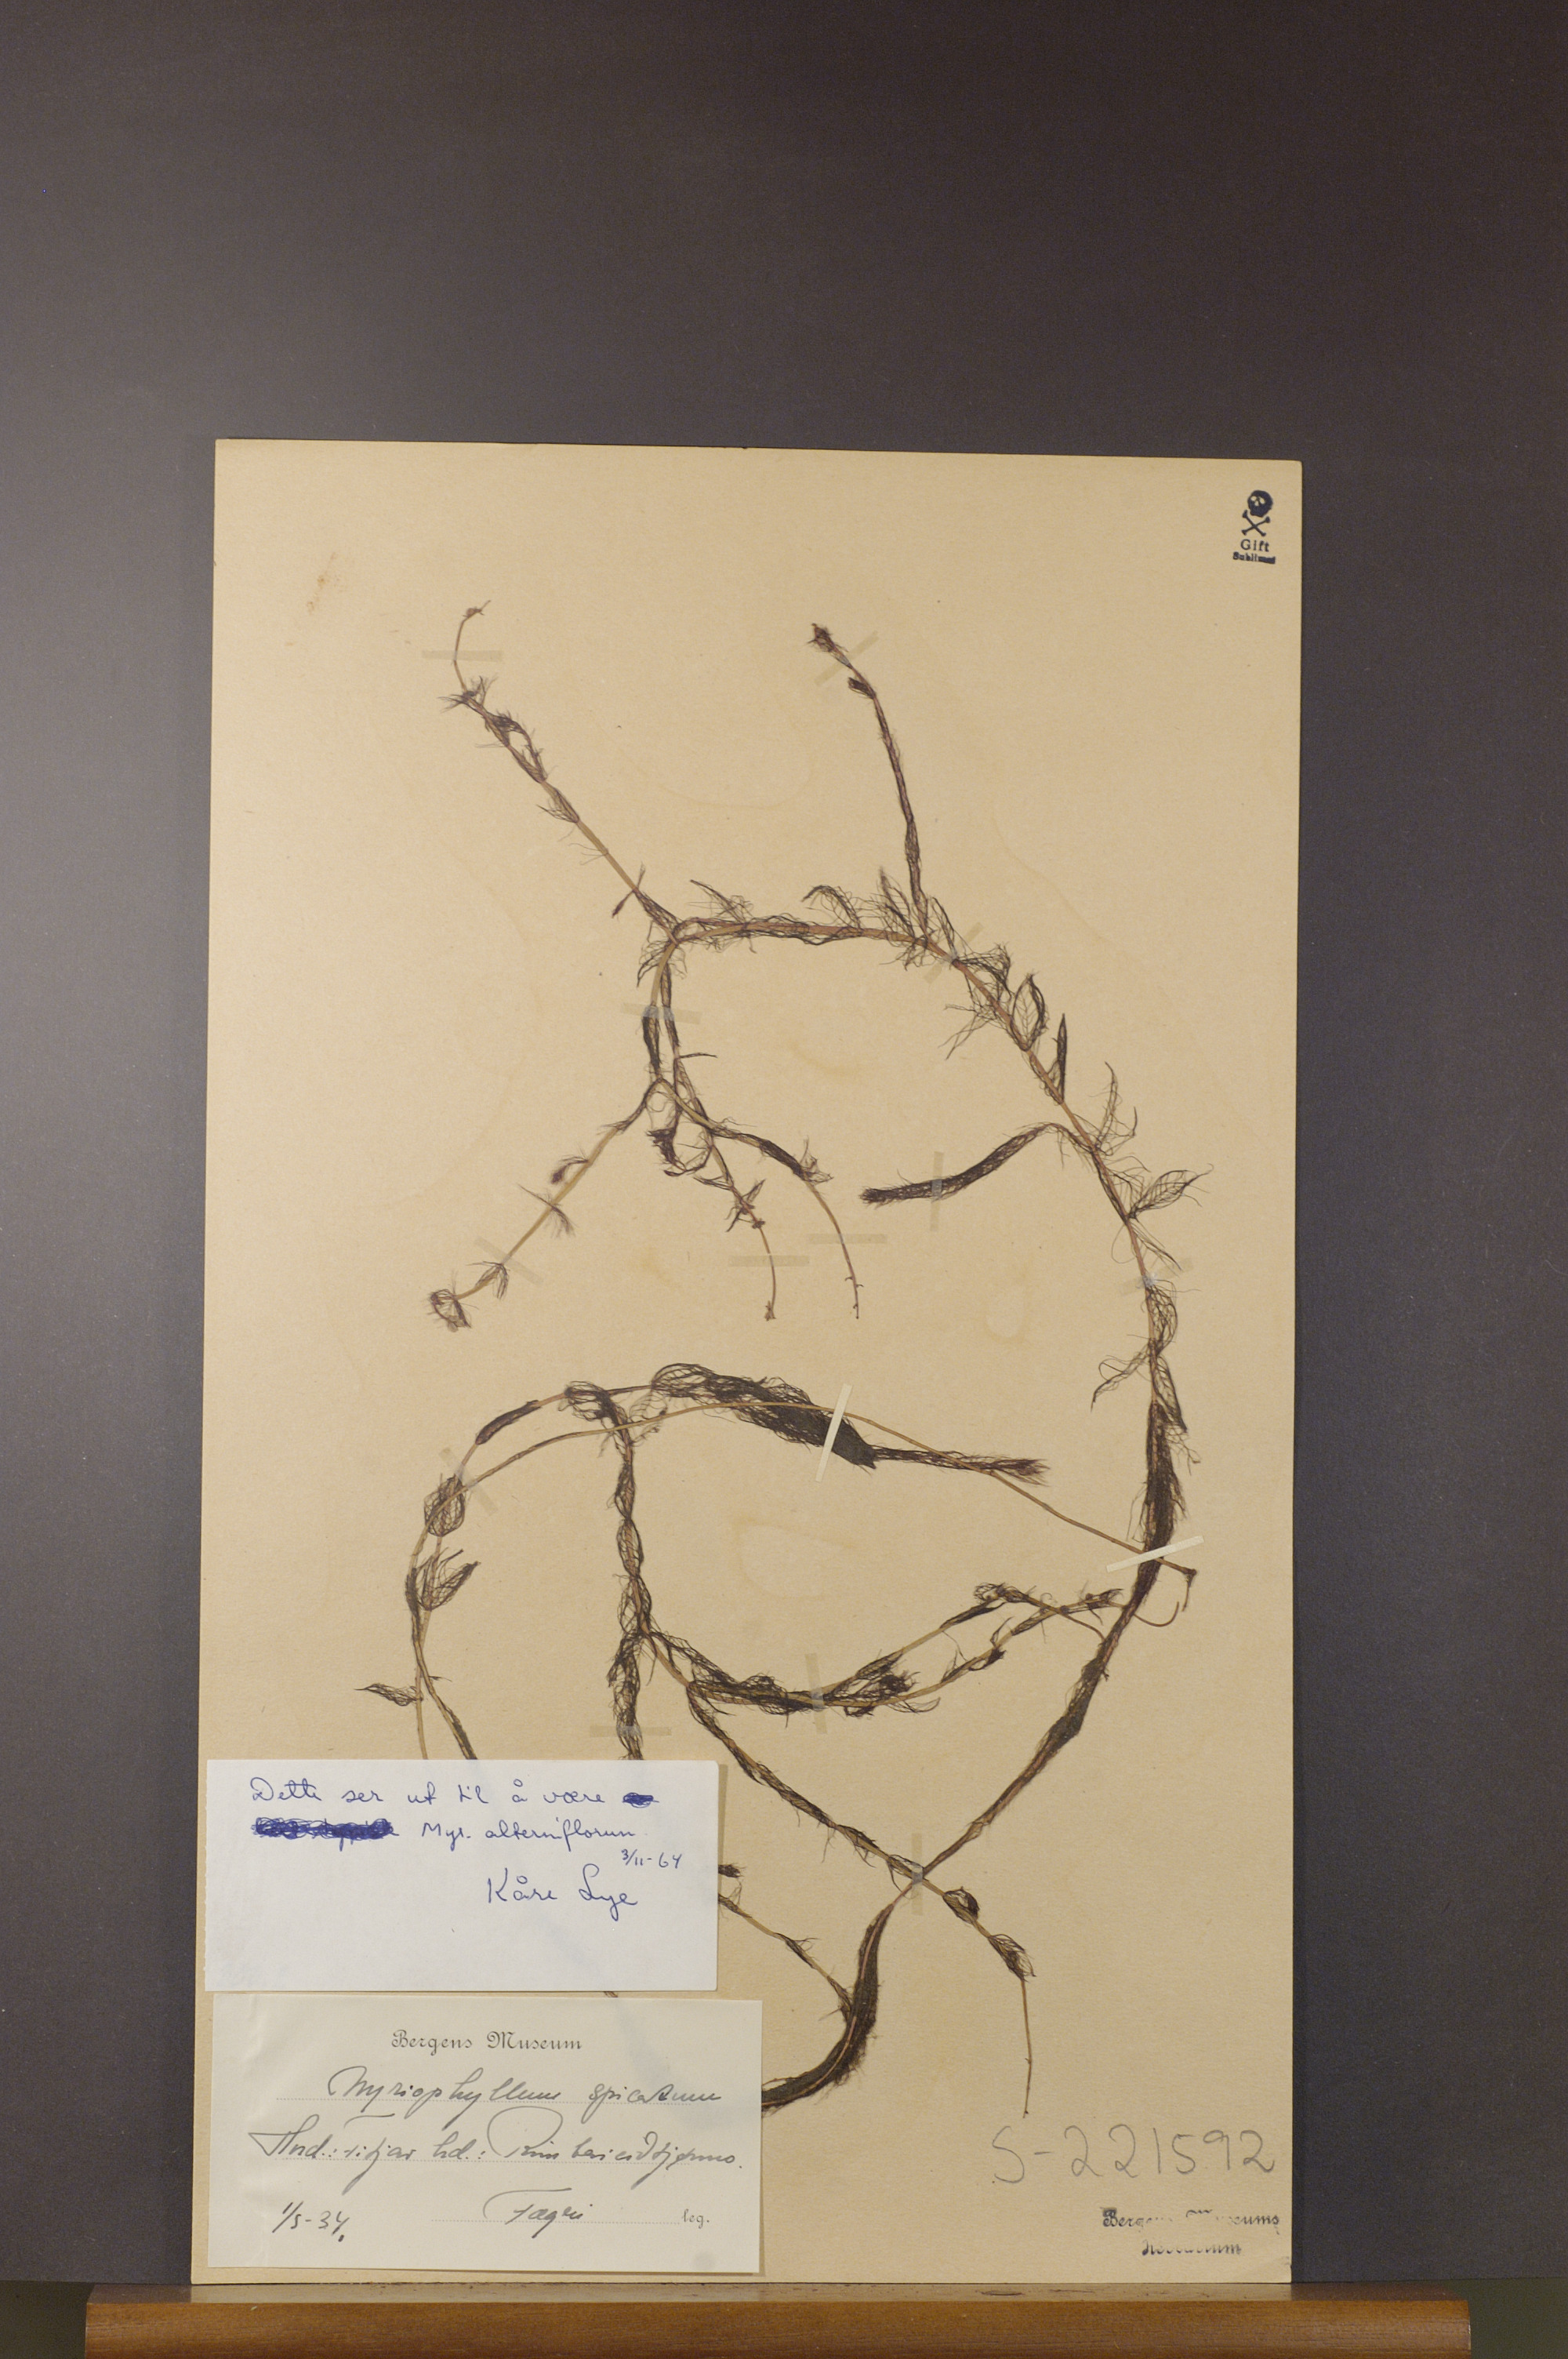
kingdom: Plantae
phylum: Tracheophyta
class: Magnoliopsida
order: Saxifragales
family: Haloragaceae
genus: Myriophyllum
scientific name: Myriophyllum alterniflorum
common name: Alternate water-milfoil
